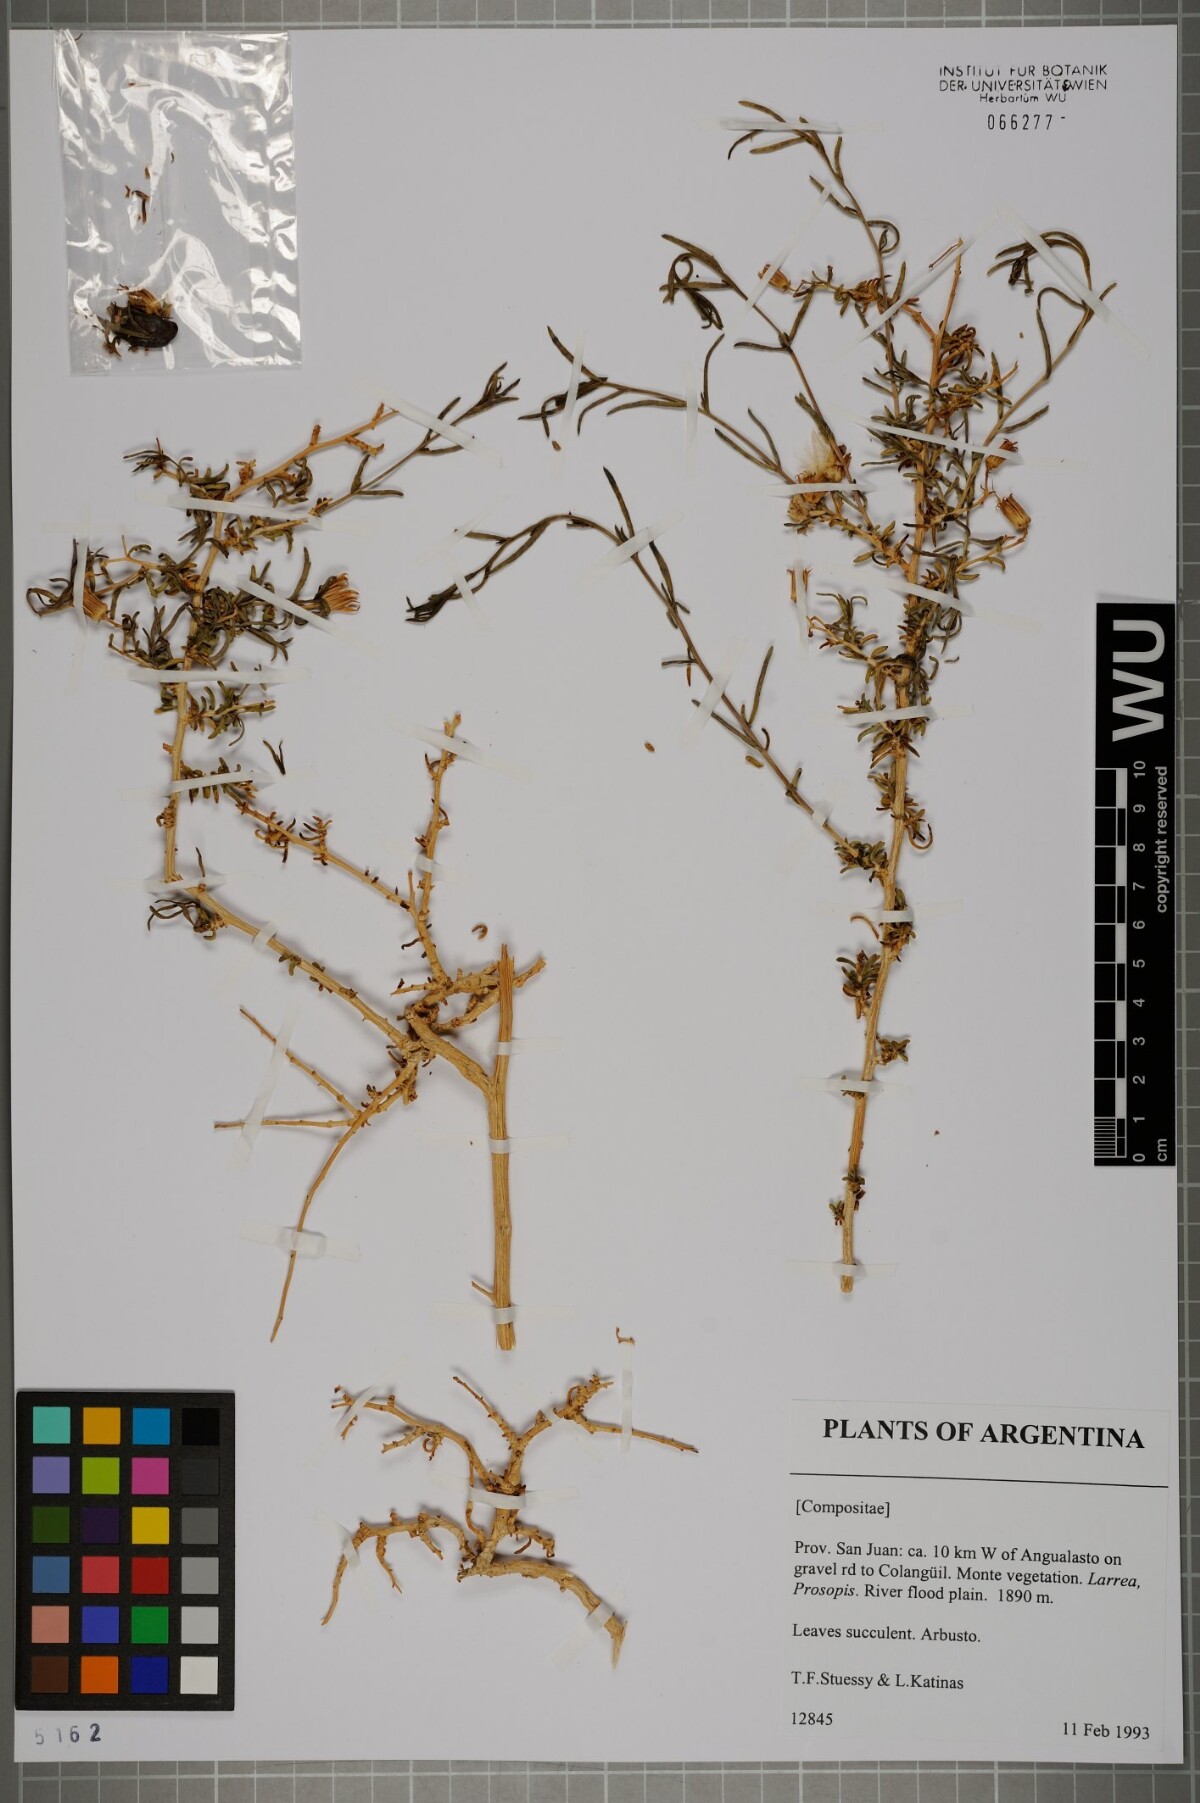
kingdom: Plantae
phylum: Tracheophyta
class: Magnoliopsida
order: Asterales
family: Asteraceae
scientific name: Asteraceae
